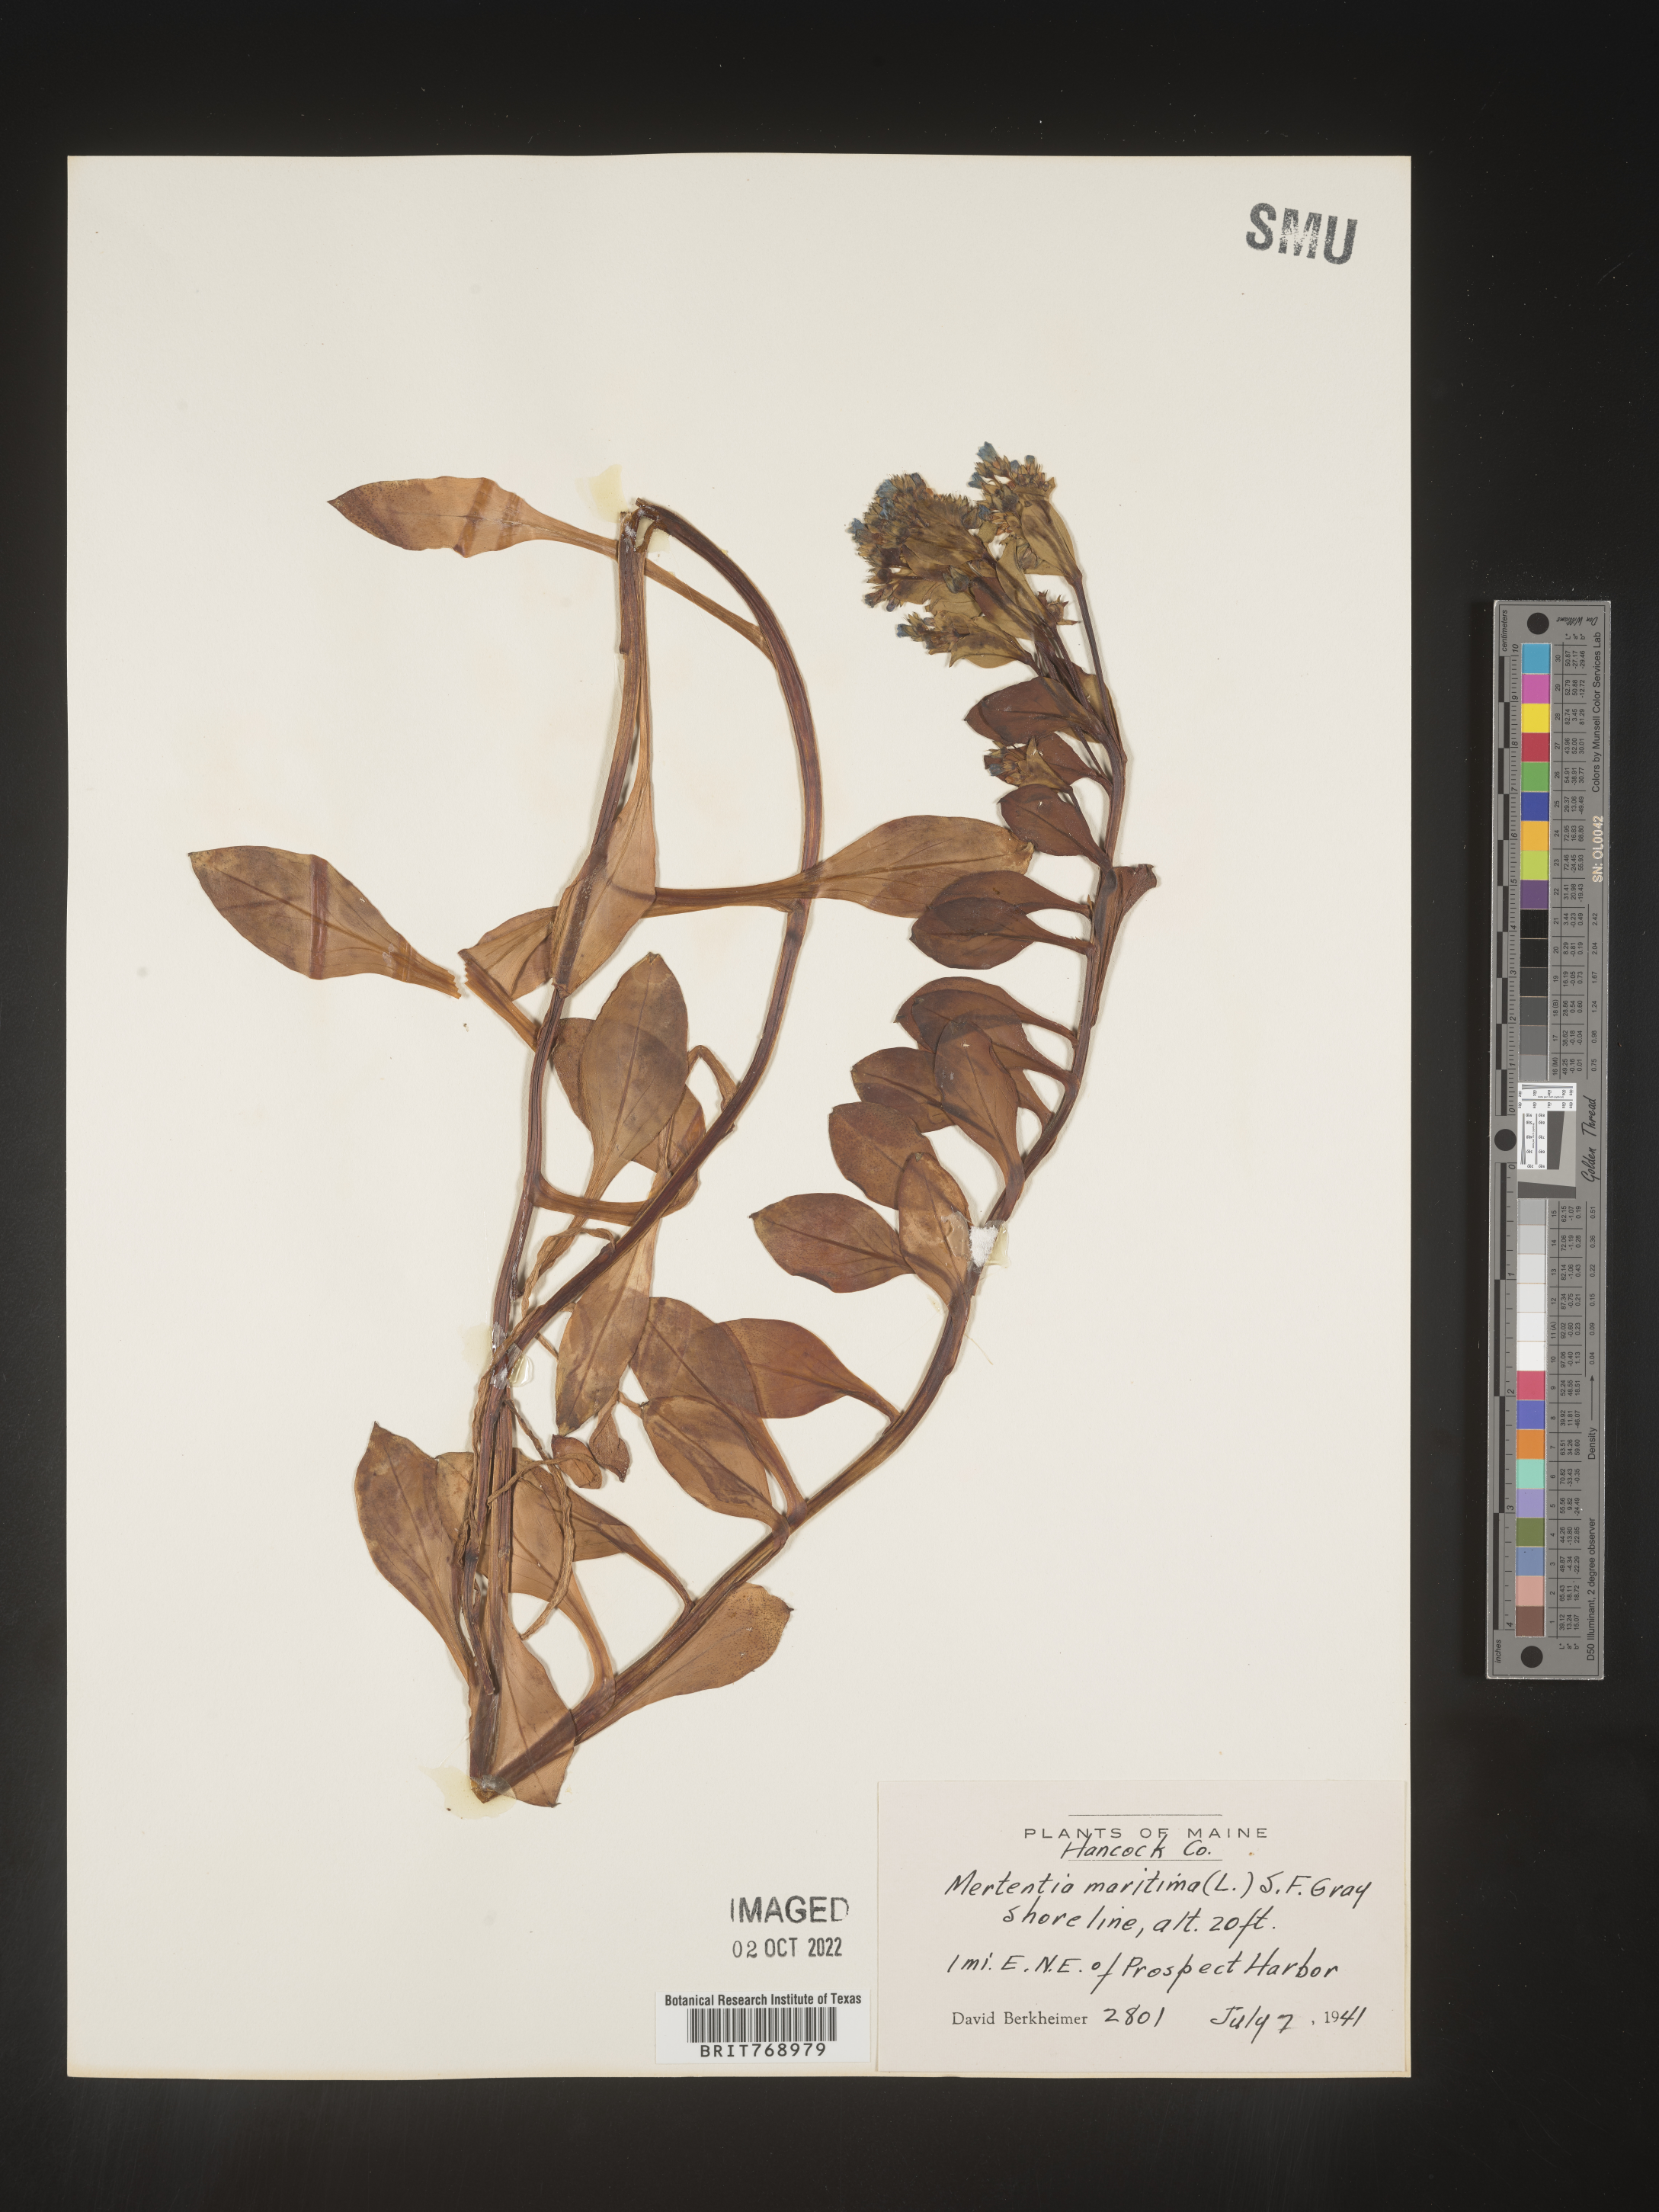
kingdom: Plantae
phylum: Tracheophyta
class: Magnoliopsida
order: Boraginales
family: Boraginaceae
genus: Mertensia
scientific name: Mertensia
